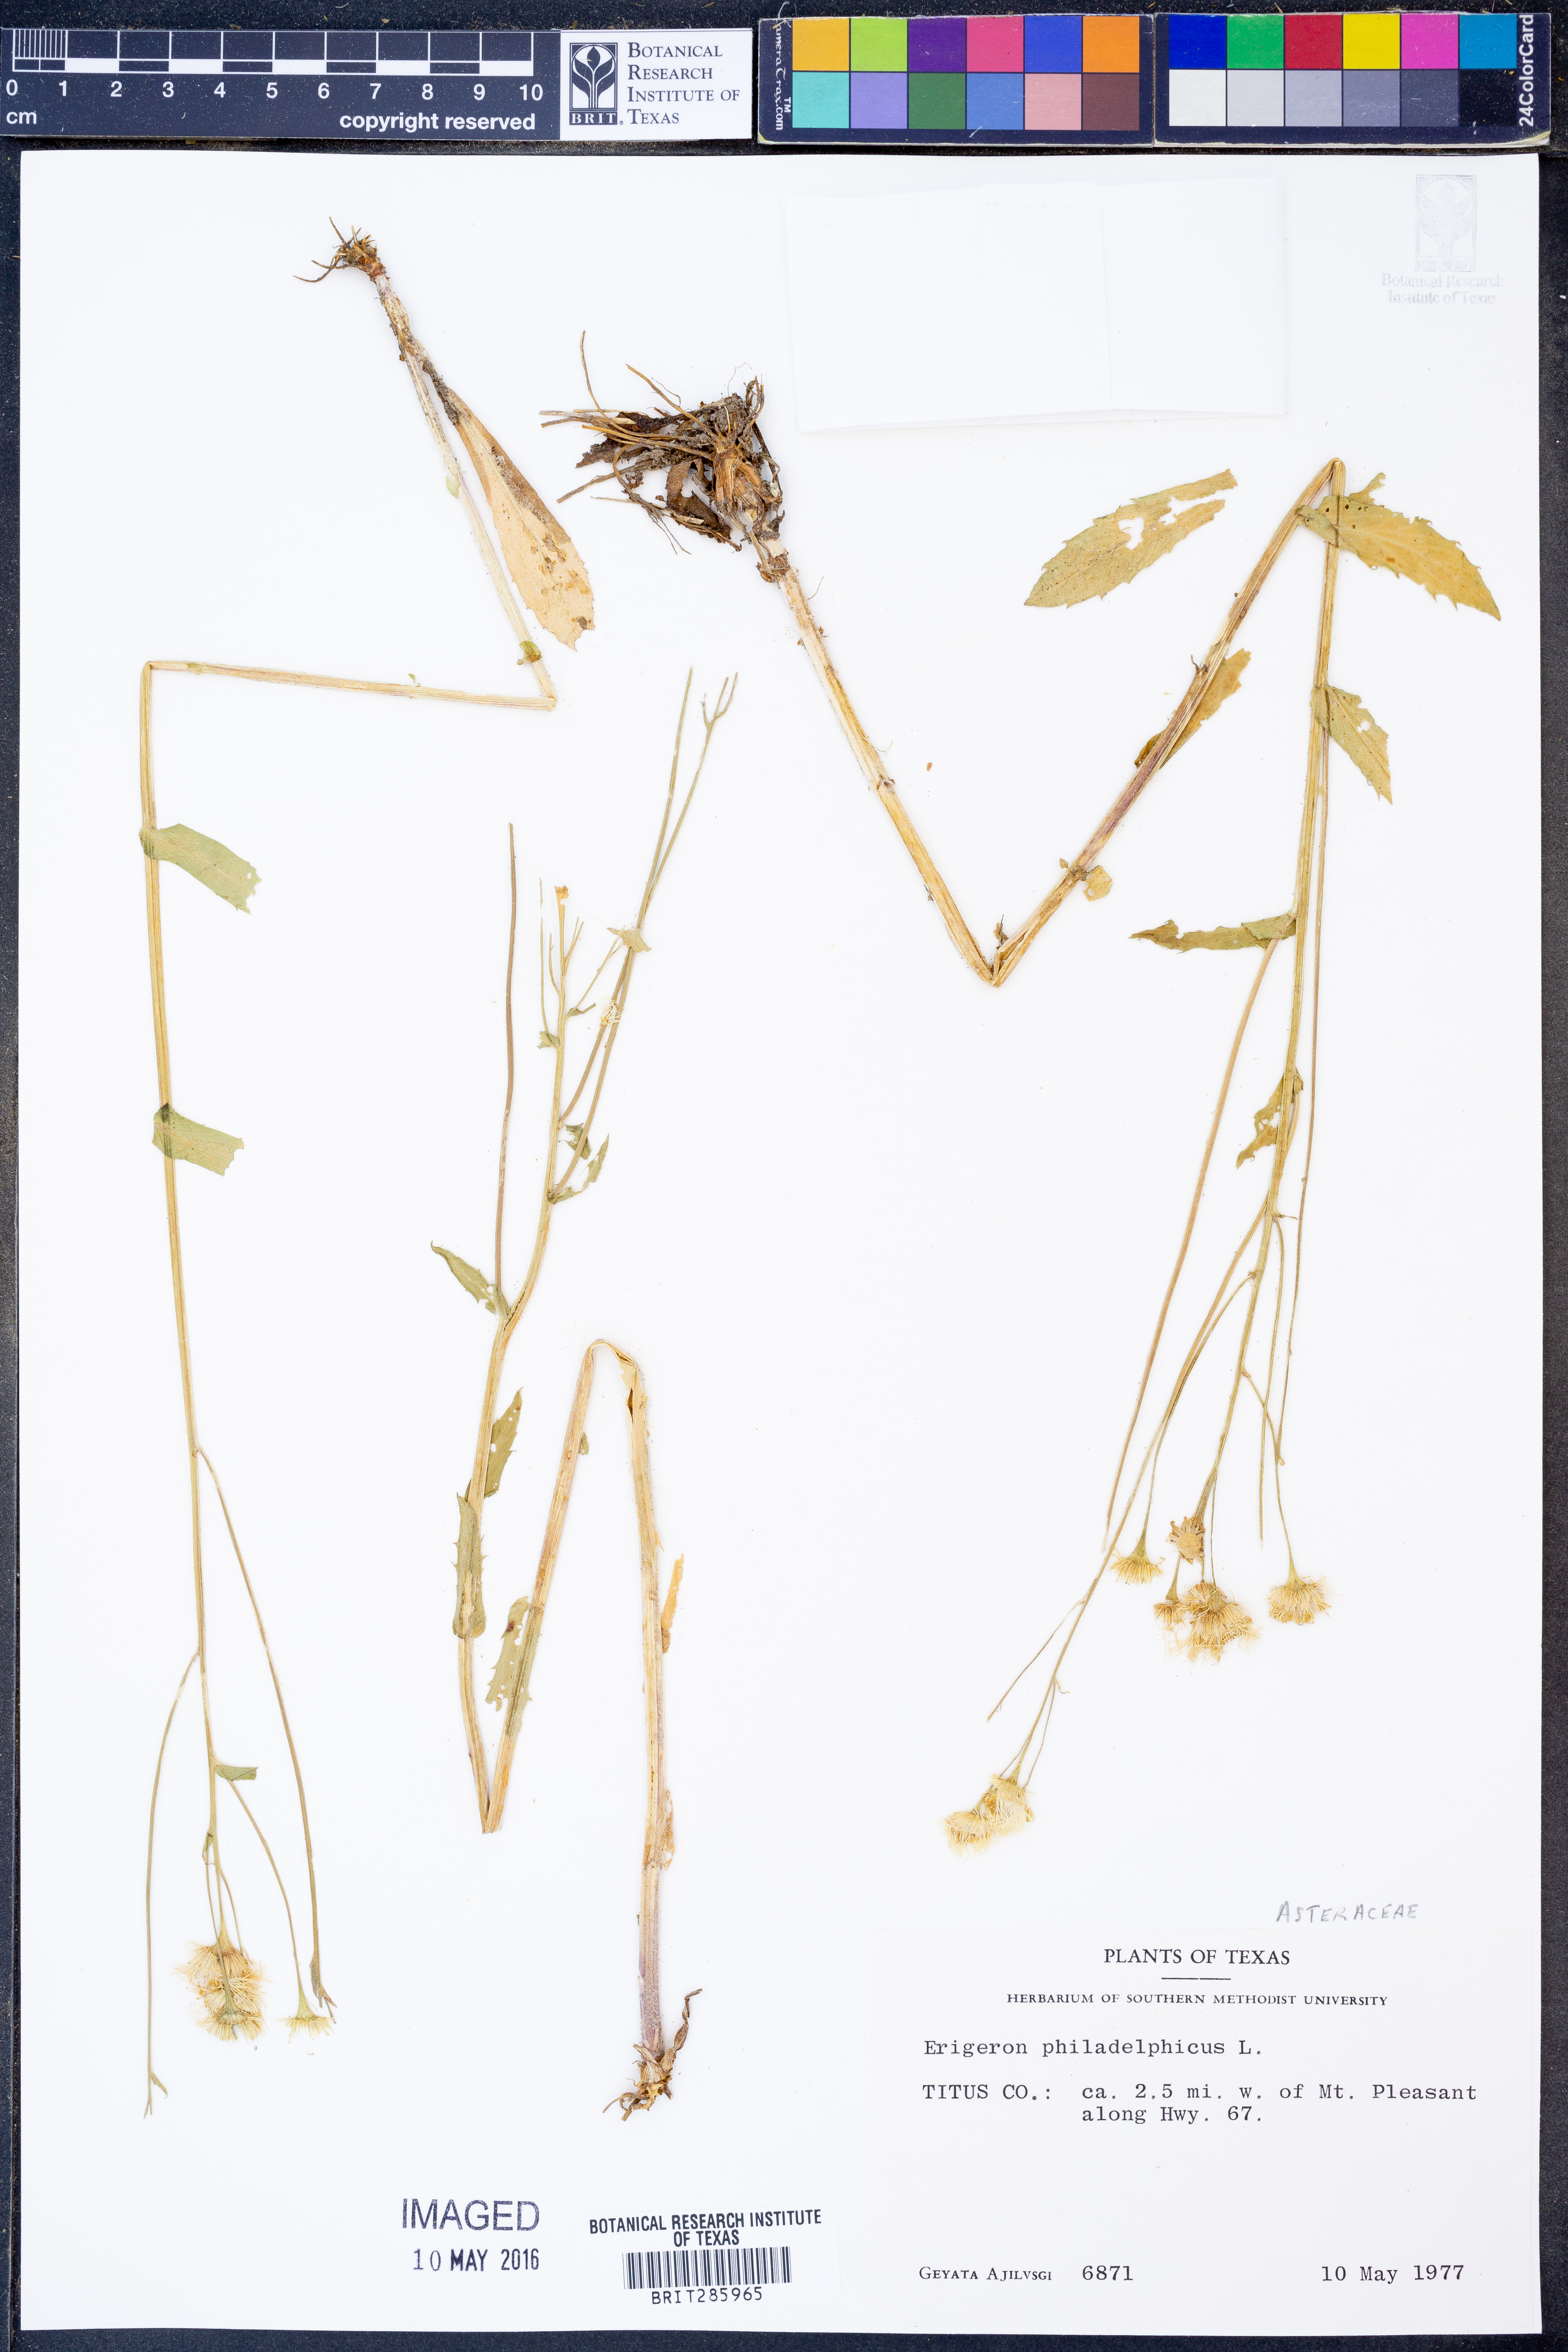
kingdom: Plantae
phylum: Tracheophyta
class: Magnoliopsida
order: Asterales
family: Asteraceae
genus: Erigeron
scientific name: Erigeron philadelphicus
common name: Robin's-plantain
